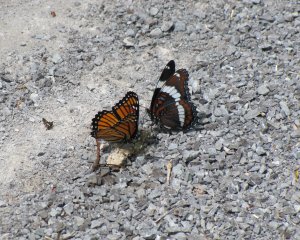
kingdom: Animalia
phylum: Arthropoda
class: Insecta
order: Lepidoptera
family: Nymphalidae
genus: Limenitis
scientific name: Limenitis archippus
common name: Viceroy
